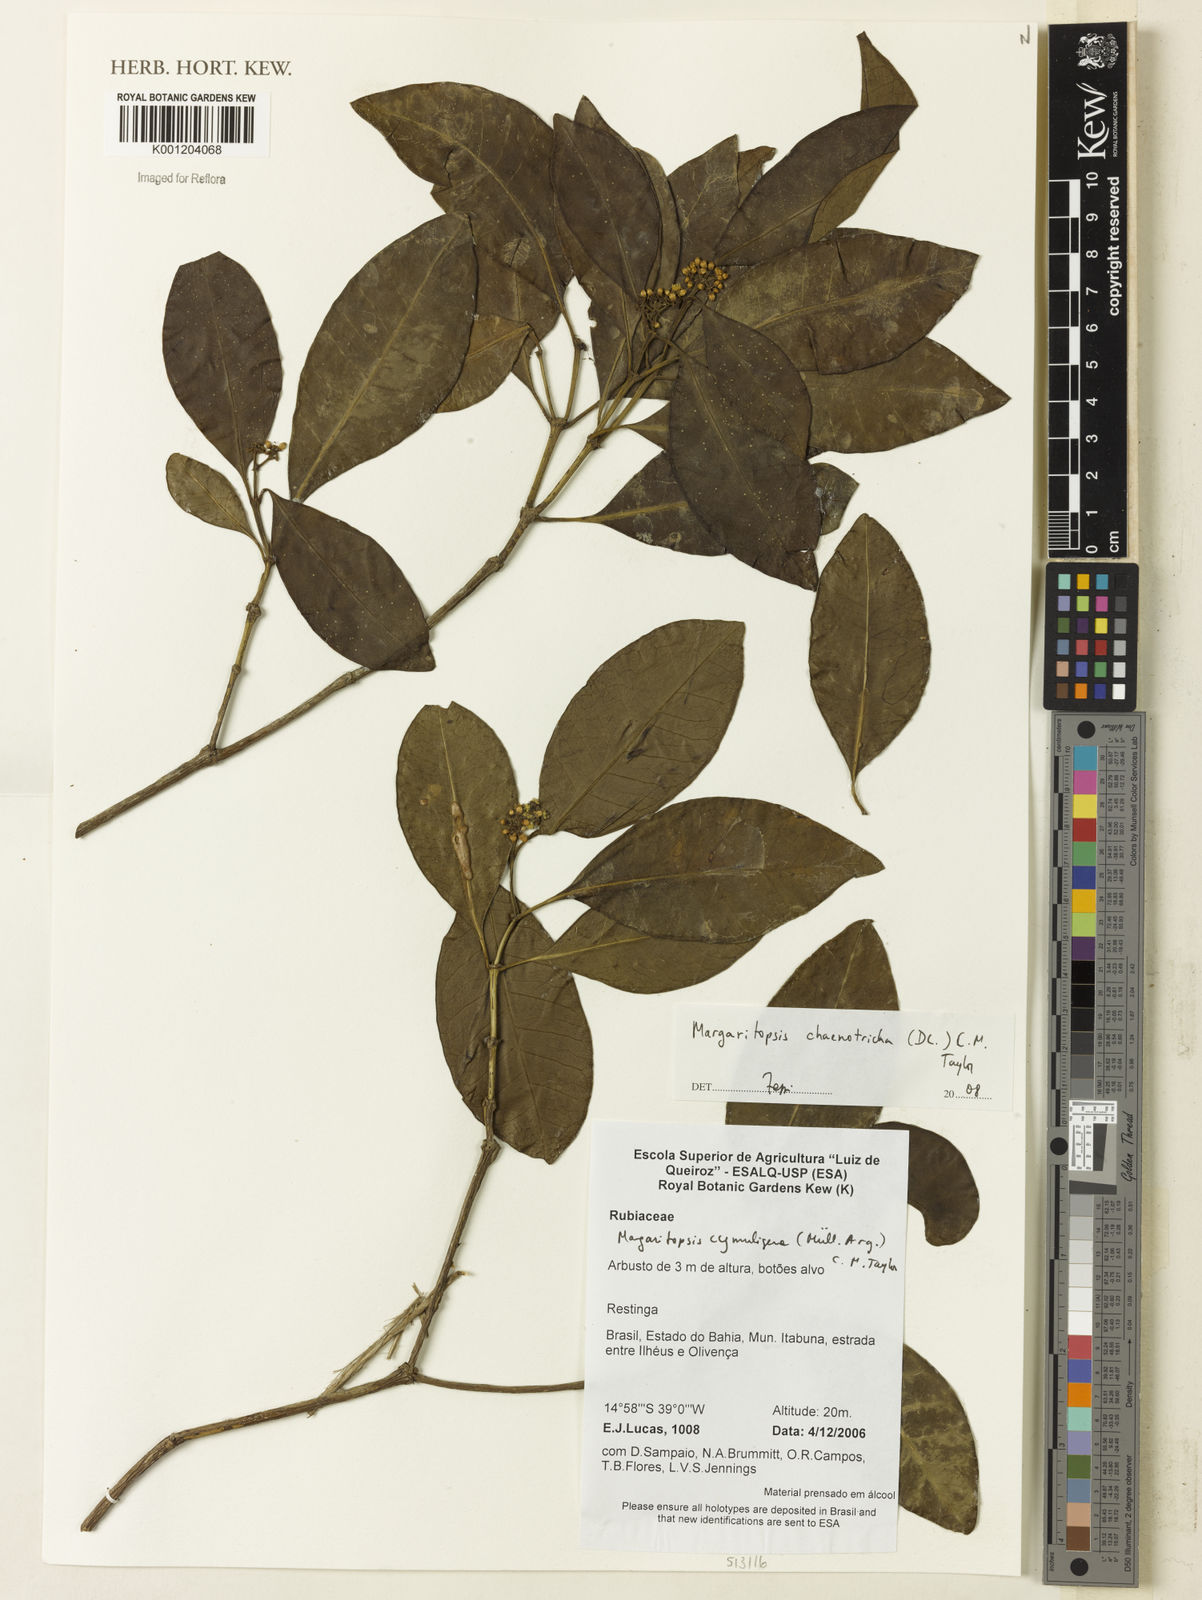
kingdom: Plantae
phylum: Tracheophyta
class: Magnoliopsida
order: Gentianales
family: Rubiaceae
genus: Eumachia
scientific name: Eumachia chaenotricha
